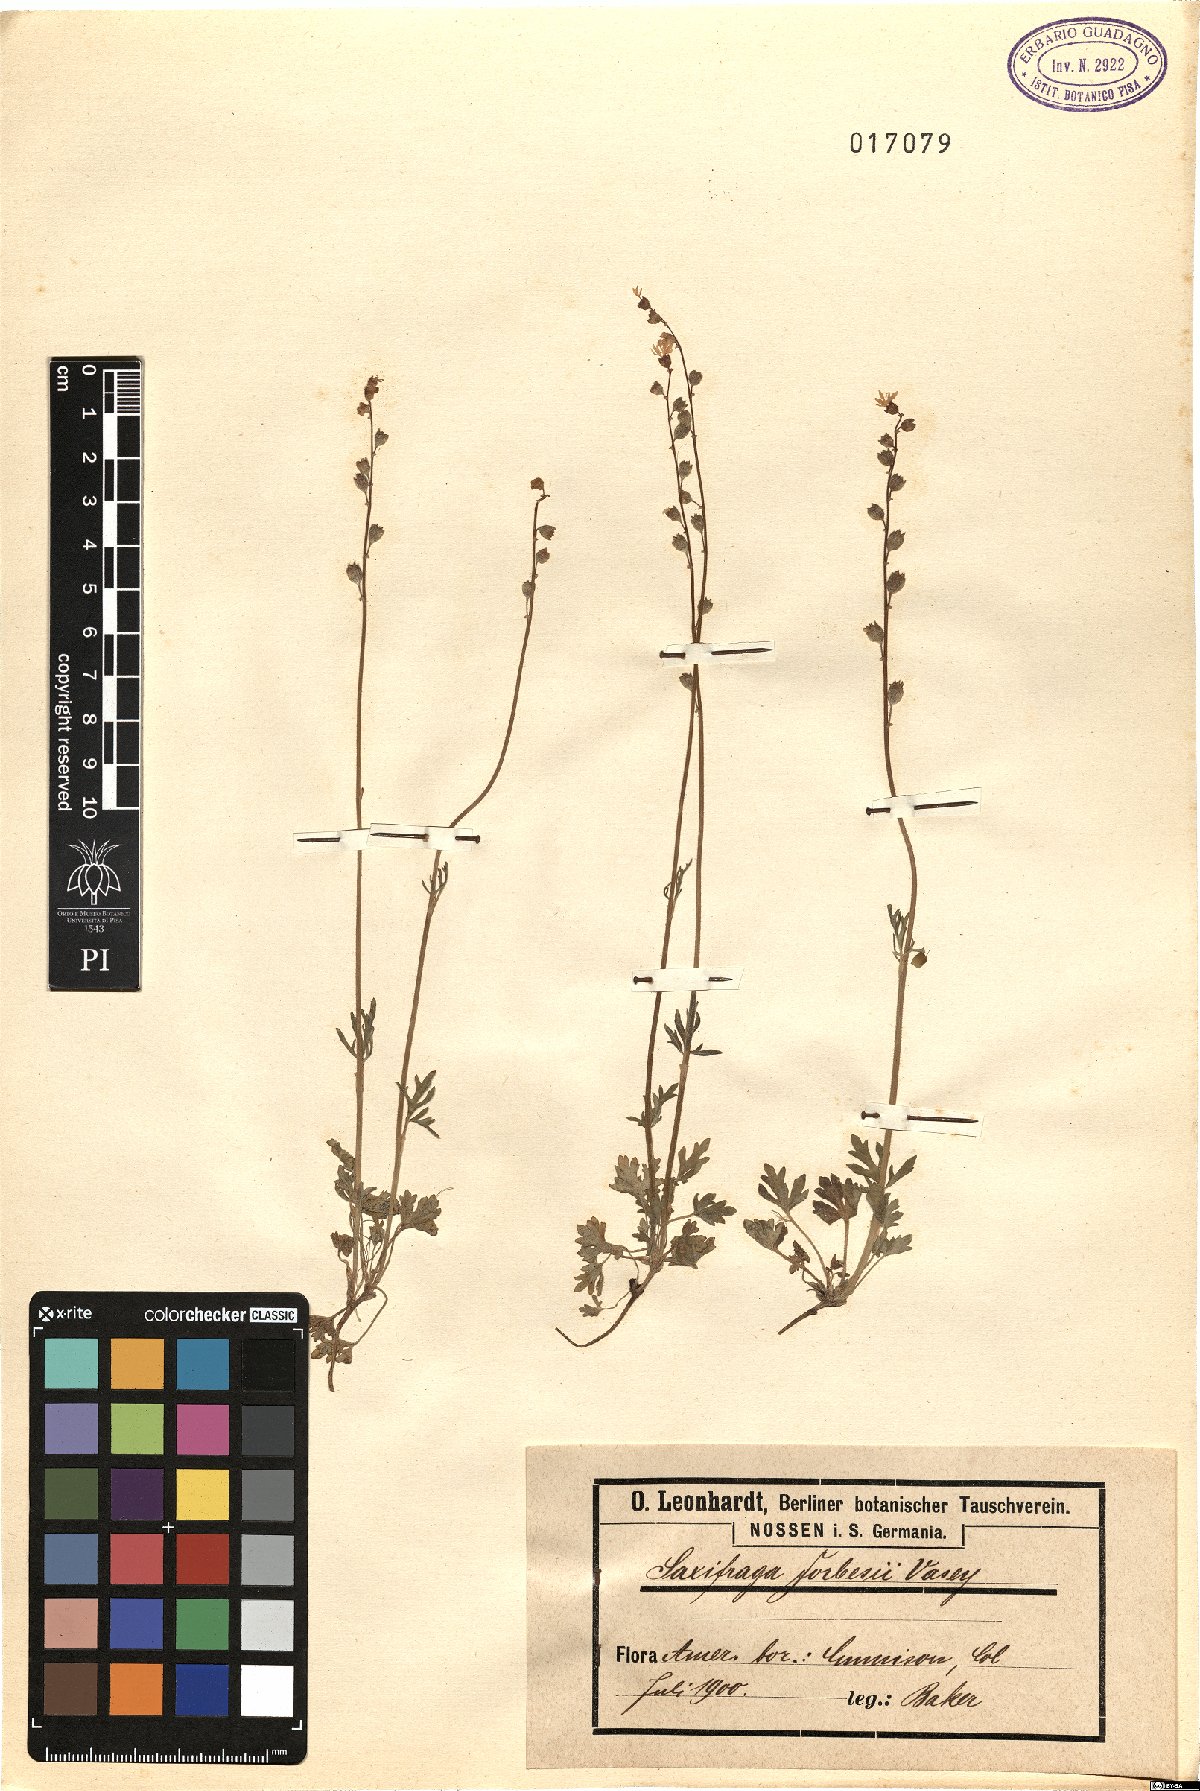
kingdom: Plantae
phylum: Tracheophyta
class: Magnoliopsida
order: Saxifragales
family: Saxifragaceae
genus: Micranthes
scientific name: Micranthes pensylvanica
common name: Marsh saxifrage
